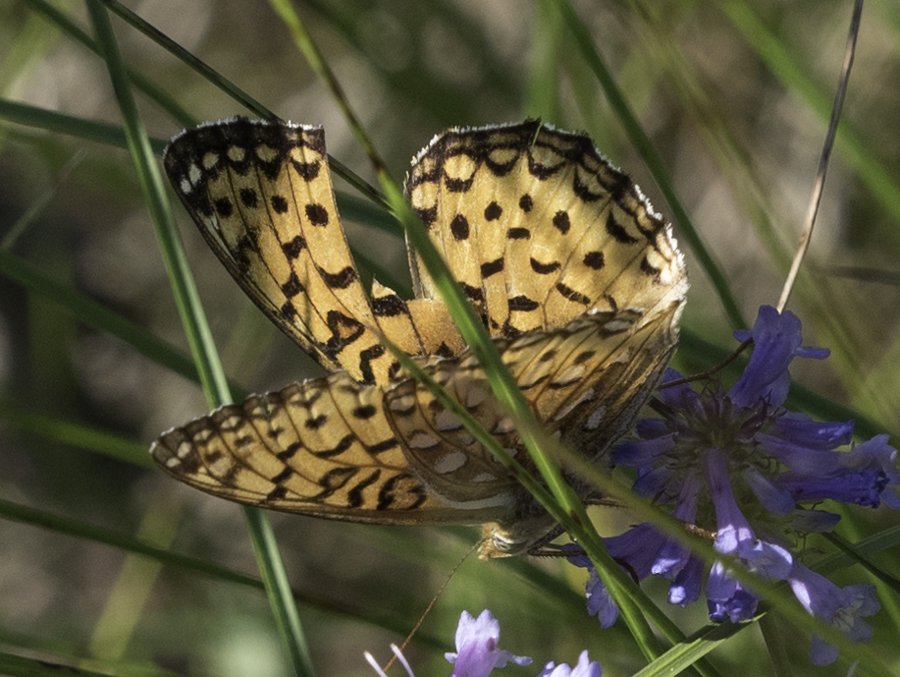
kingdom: Animalia
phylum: Arthropoda
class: Insecta
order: Lepidoptera
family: Nymphalidae
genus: Speyeria
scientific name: Speyeria atlantis
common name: Northwestern Fritillary
